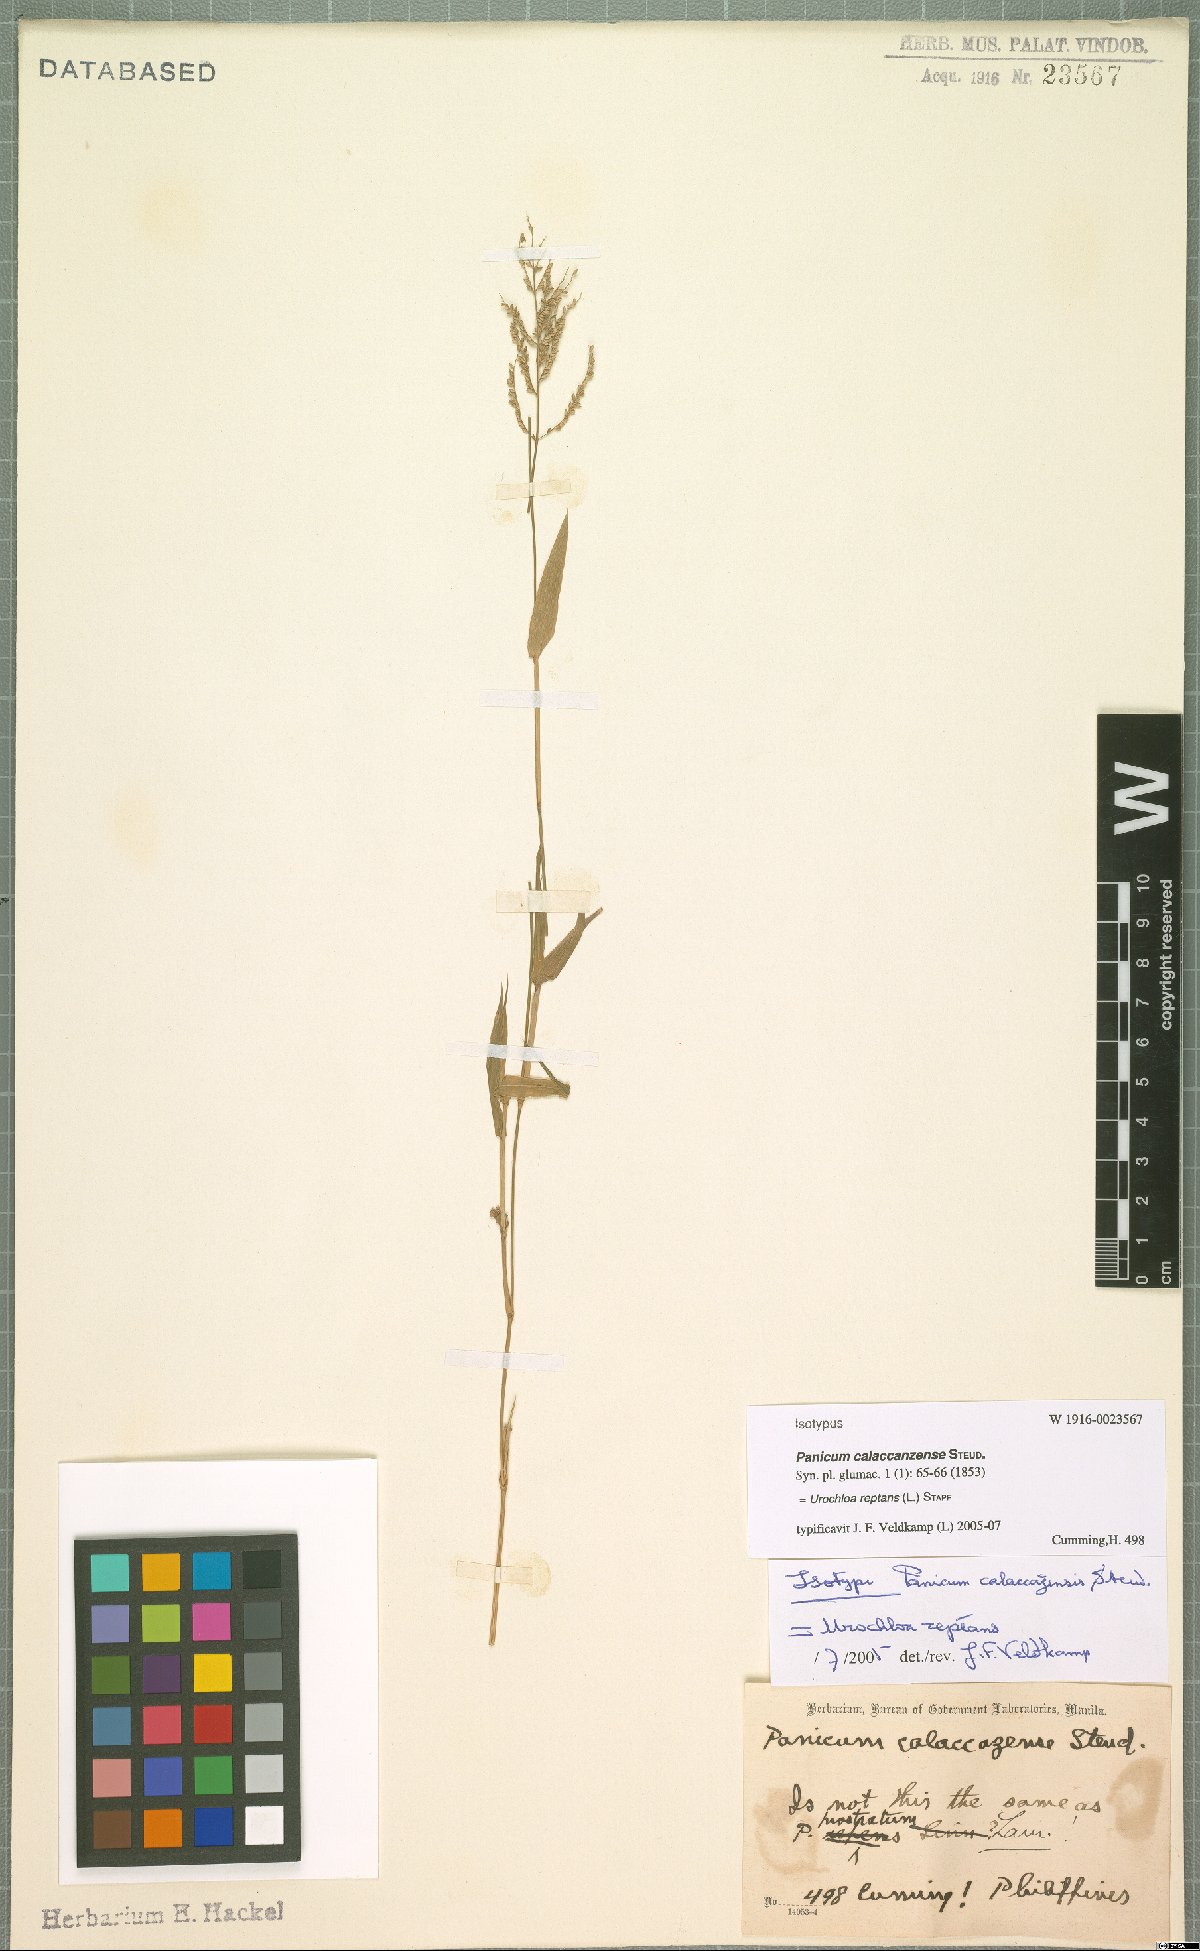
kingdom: Plantae
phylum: Tracheophyta
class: Liliopsida
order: Poales
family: Poaceae
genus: Urochloa
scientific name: Urochloa reptans
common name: Sprawling signalgrass
